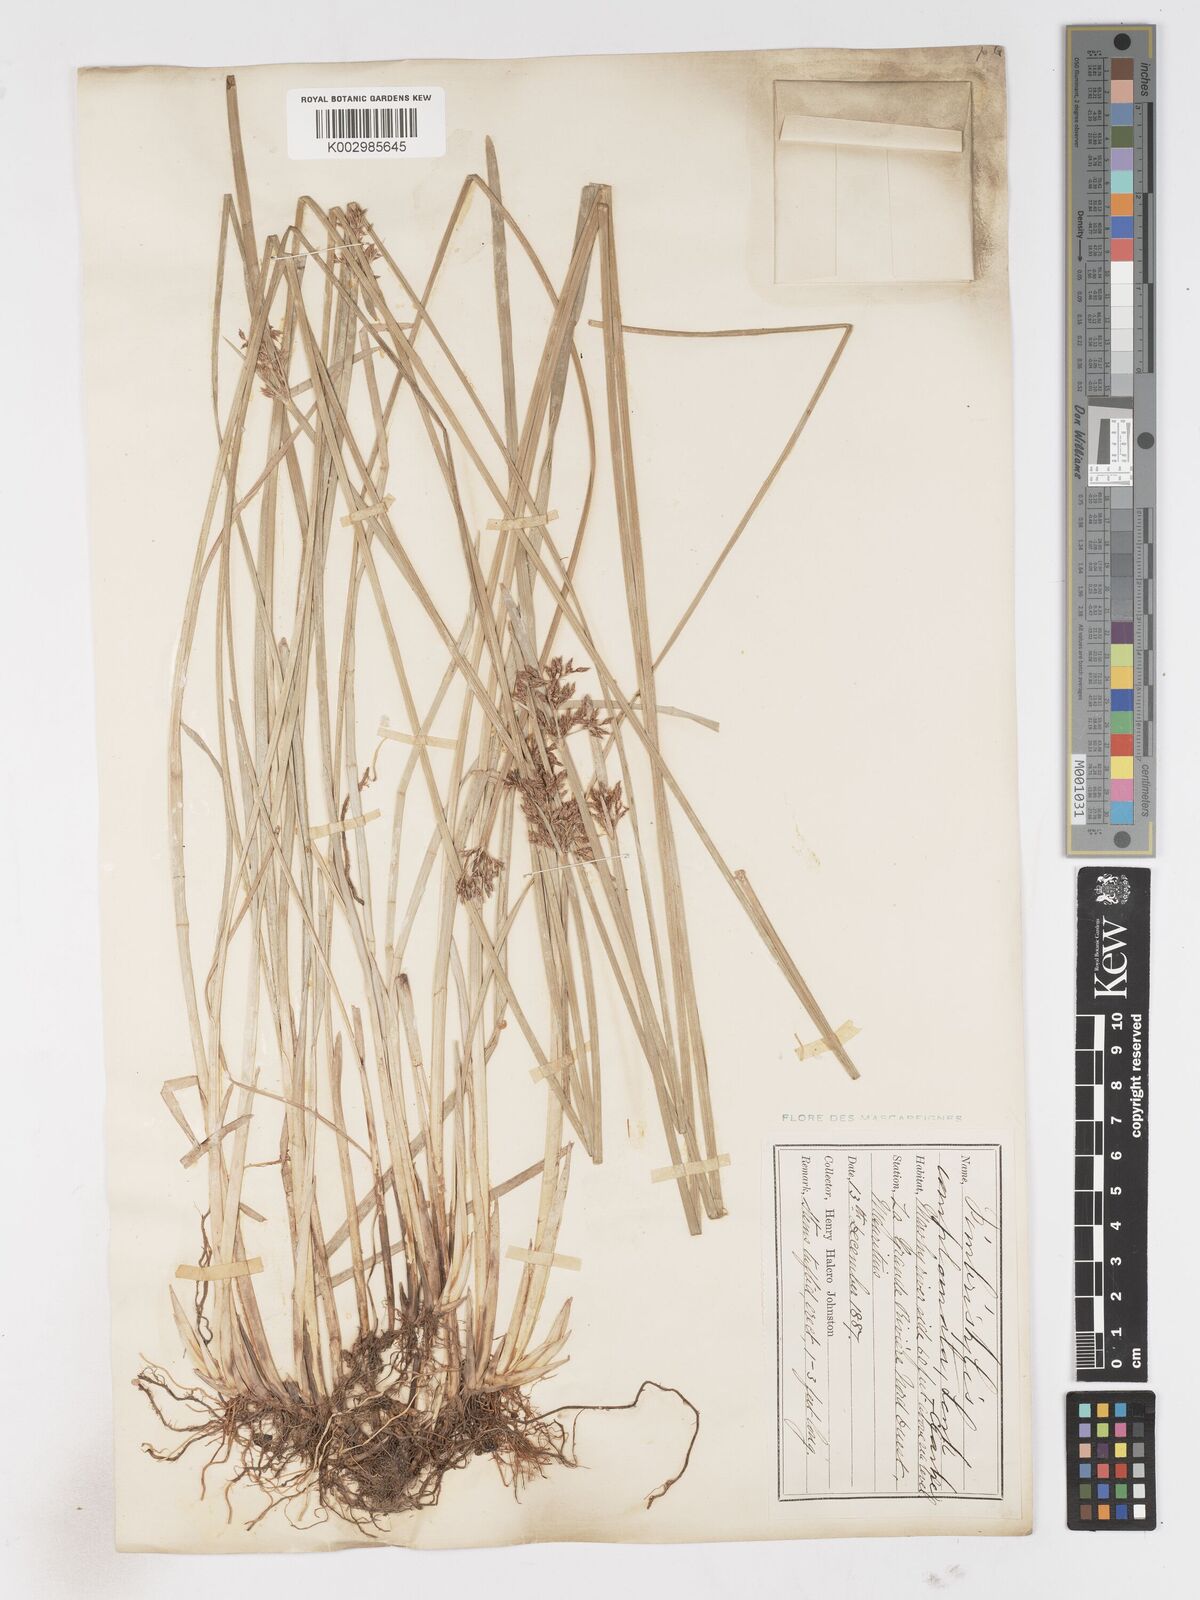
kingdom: Plantae
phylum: Tracheophyta
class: Liliopsida
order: Poales
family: Cyperaceae
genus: Fimbristylis
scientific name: Fimbristylis complanata
